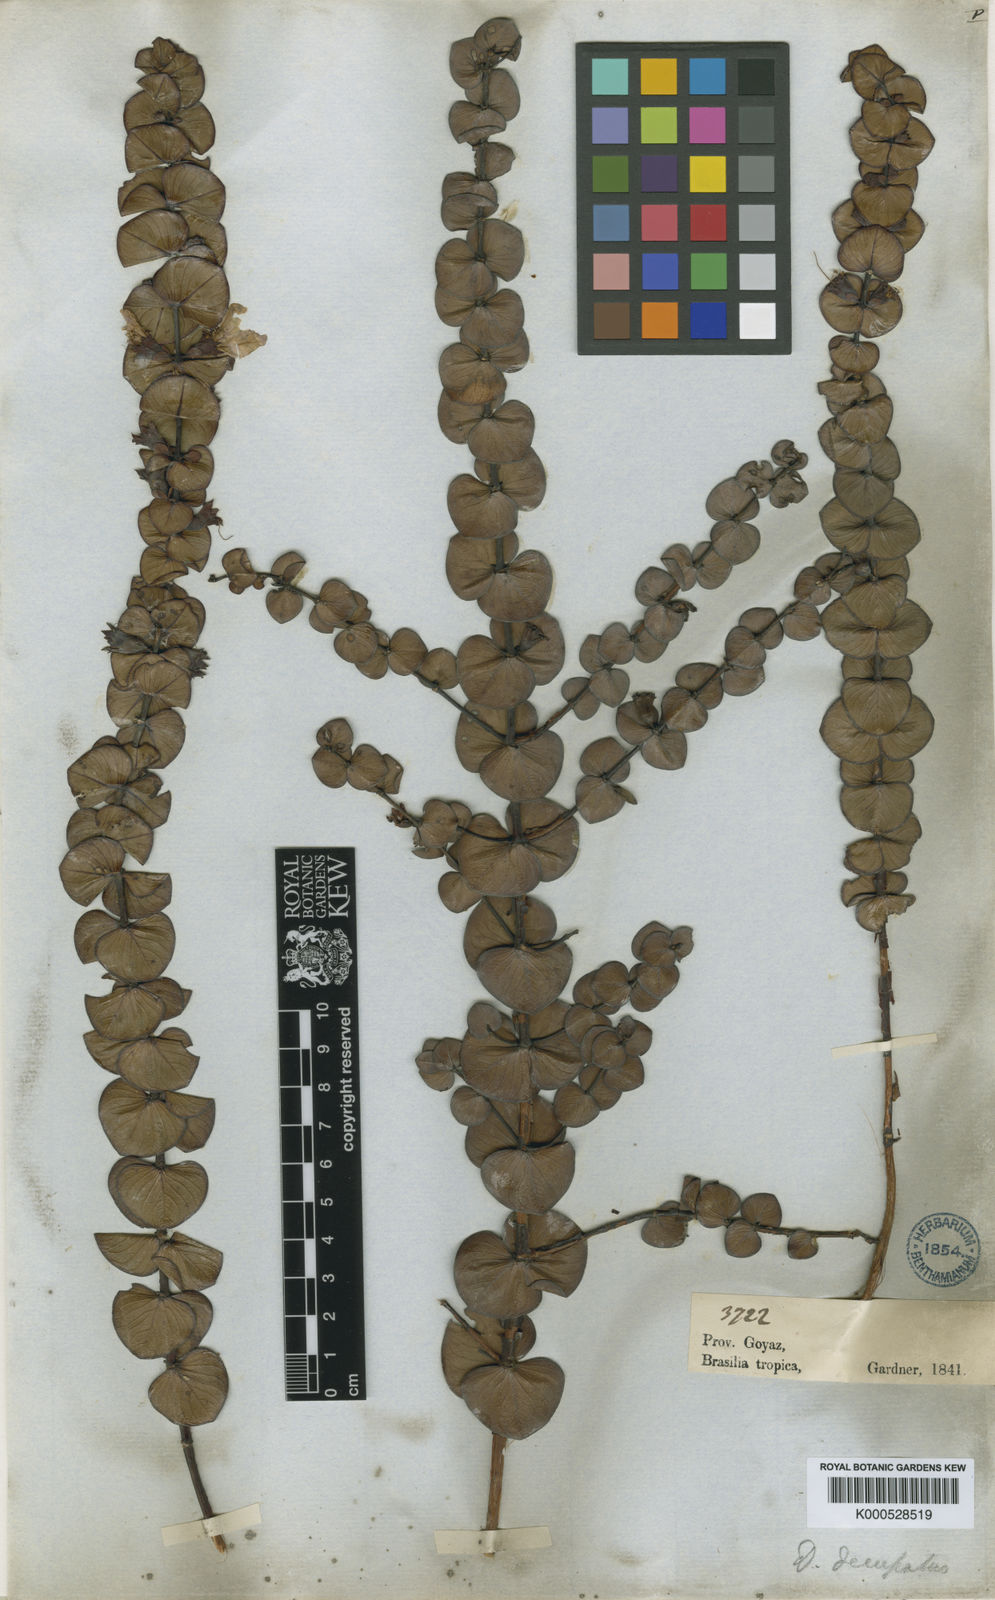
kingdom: Plantae
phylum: Tracheophyta
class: Magnoliopsida
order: Myrtales
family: Lythraceae
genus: Diplusodon
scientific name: Diplusodon decussatus
